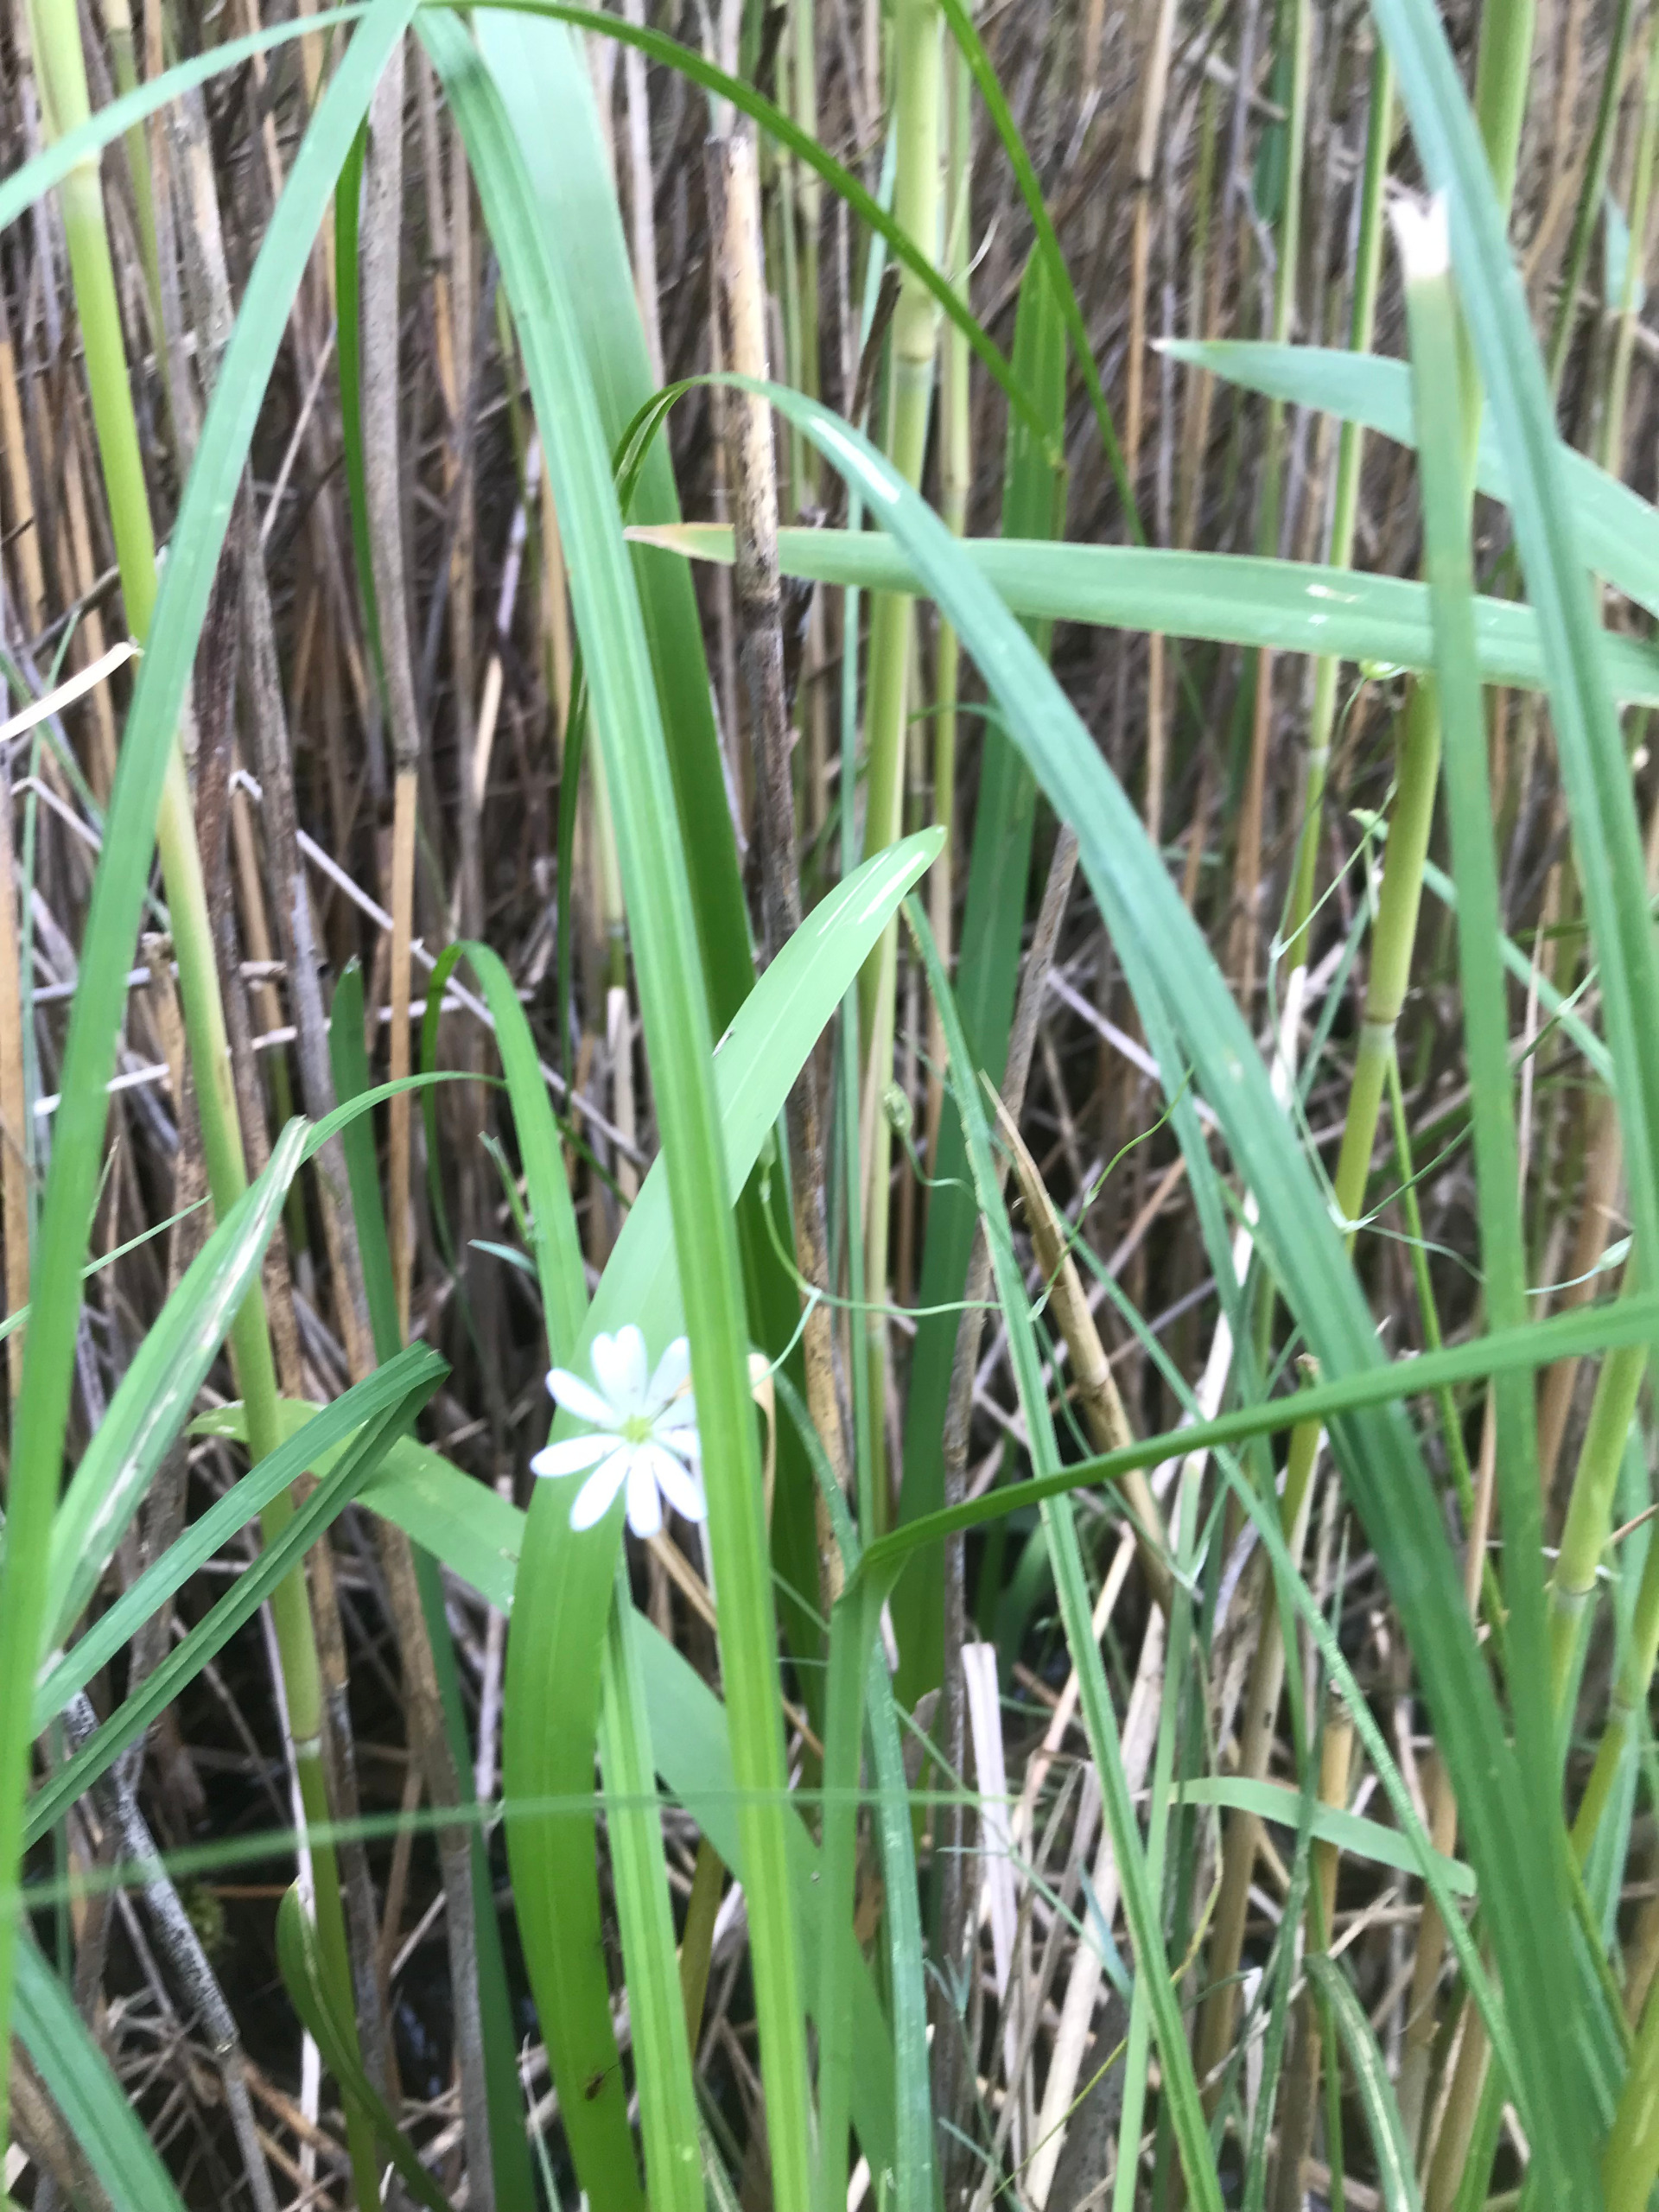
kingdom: Plantae
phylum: Tracheophyta
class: Magnoliopsida
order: Caryophyllales
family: Caryophyllaceae
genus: Stellaria
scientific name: Stellaria palustris
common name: Kær-fladstjerne
